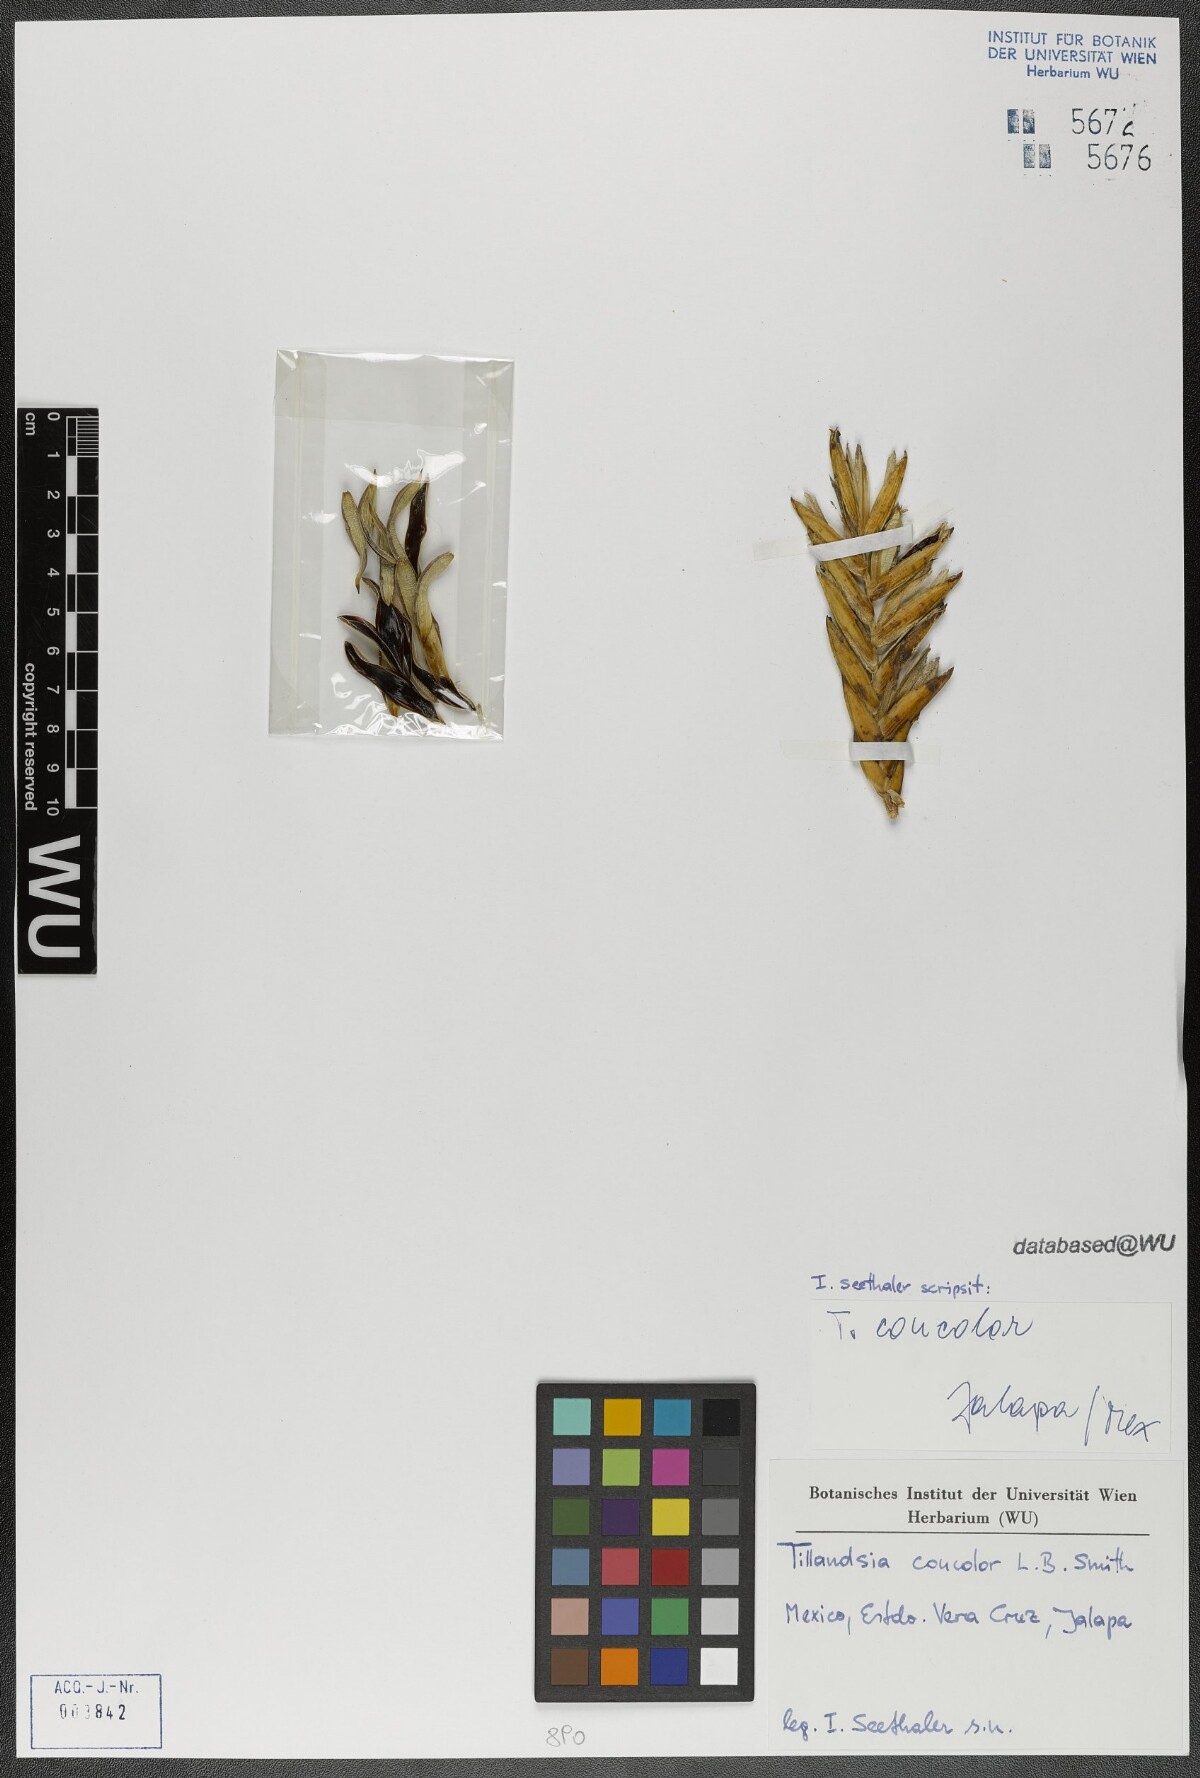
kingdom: Plantae
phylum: Tracheophyta
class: Liliopsida
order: Poales
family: Bromeliaceae
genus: Tillandsia
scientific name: Tillandsia concolor
